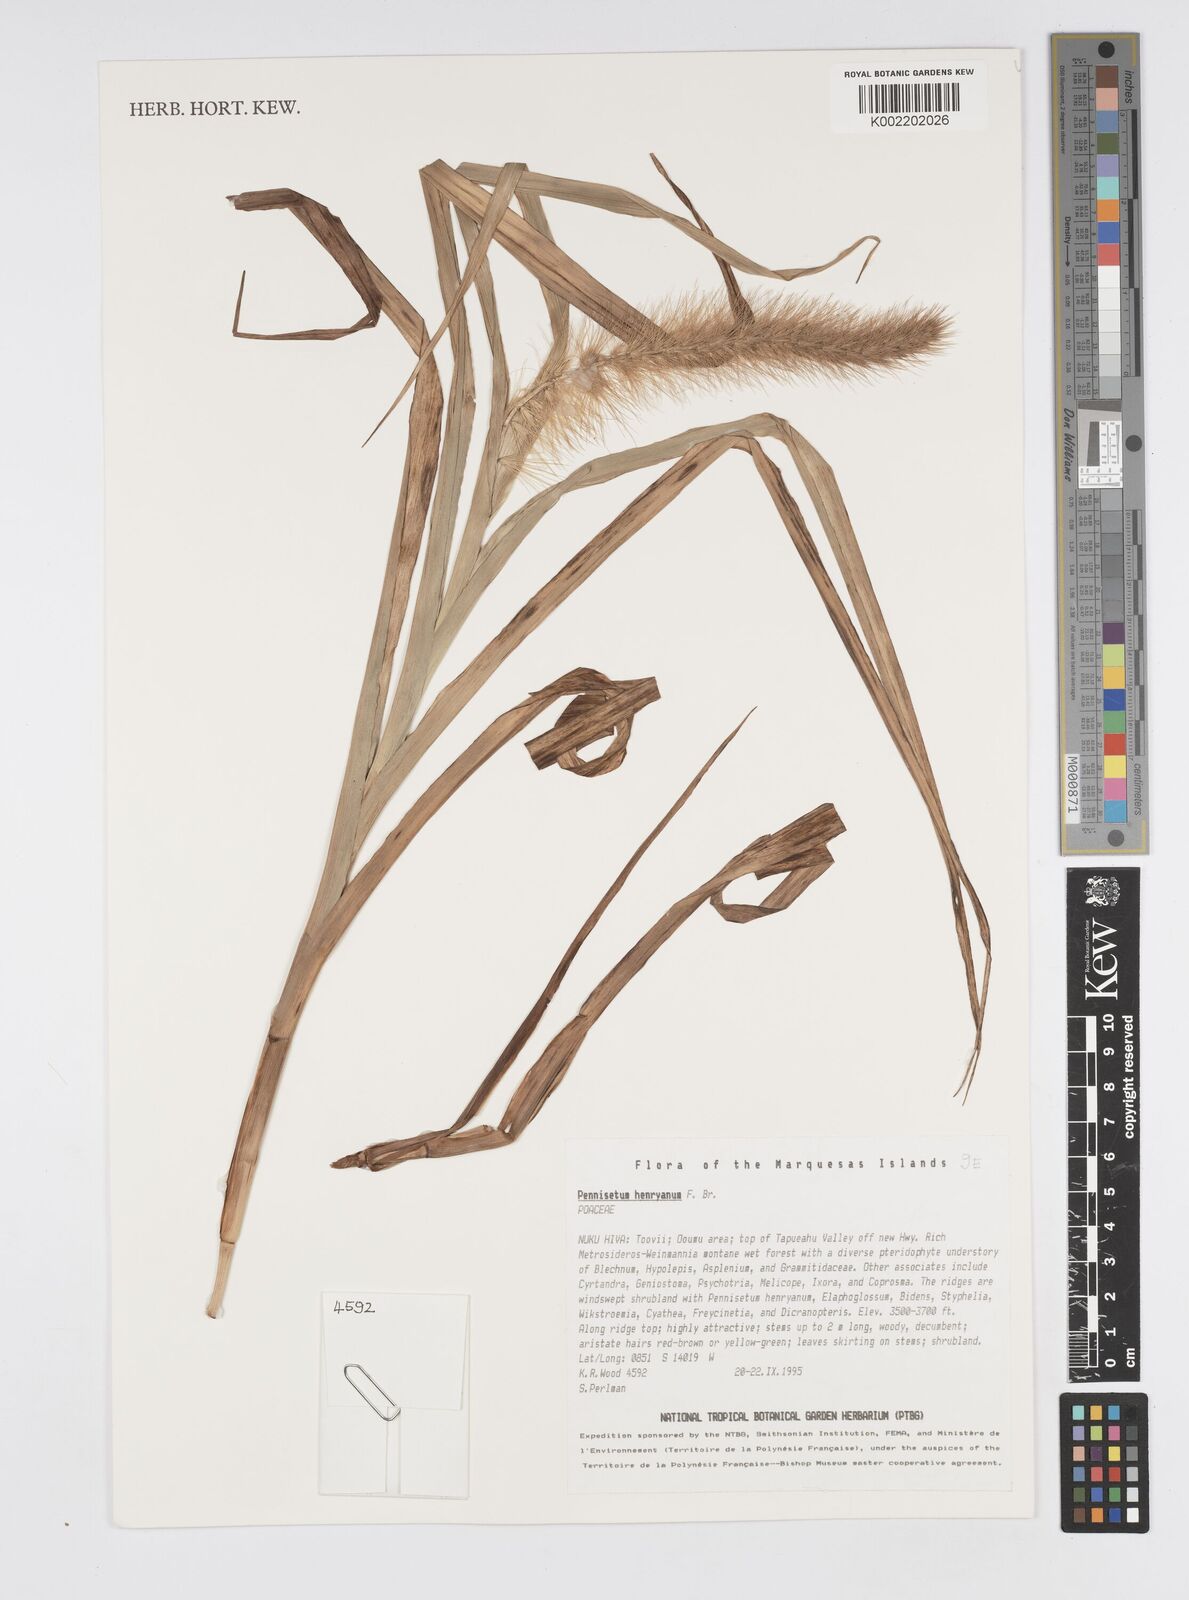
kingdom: Plantae
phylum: Tracheophyta
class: Liliopsida
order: Poales
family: Poaceae
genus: Cenchrus
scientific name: Cenchrus henryanus
